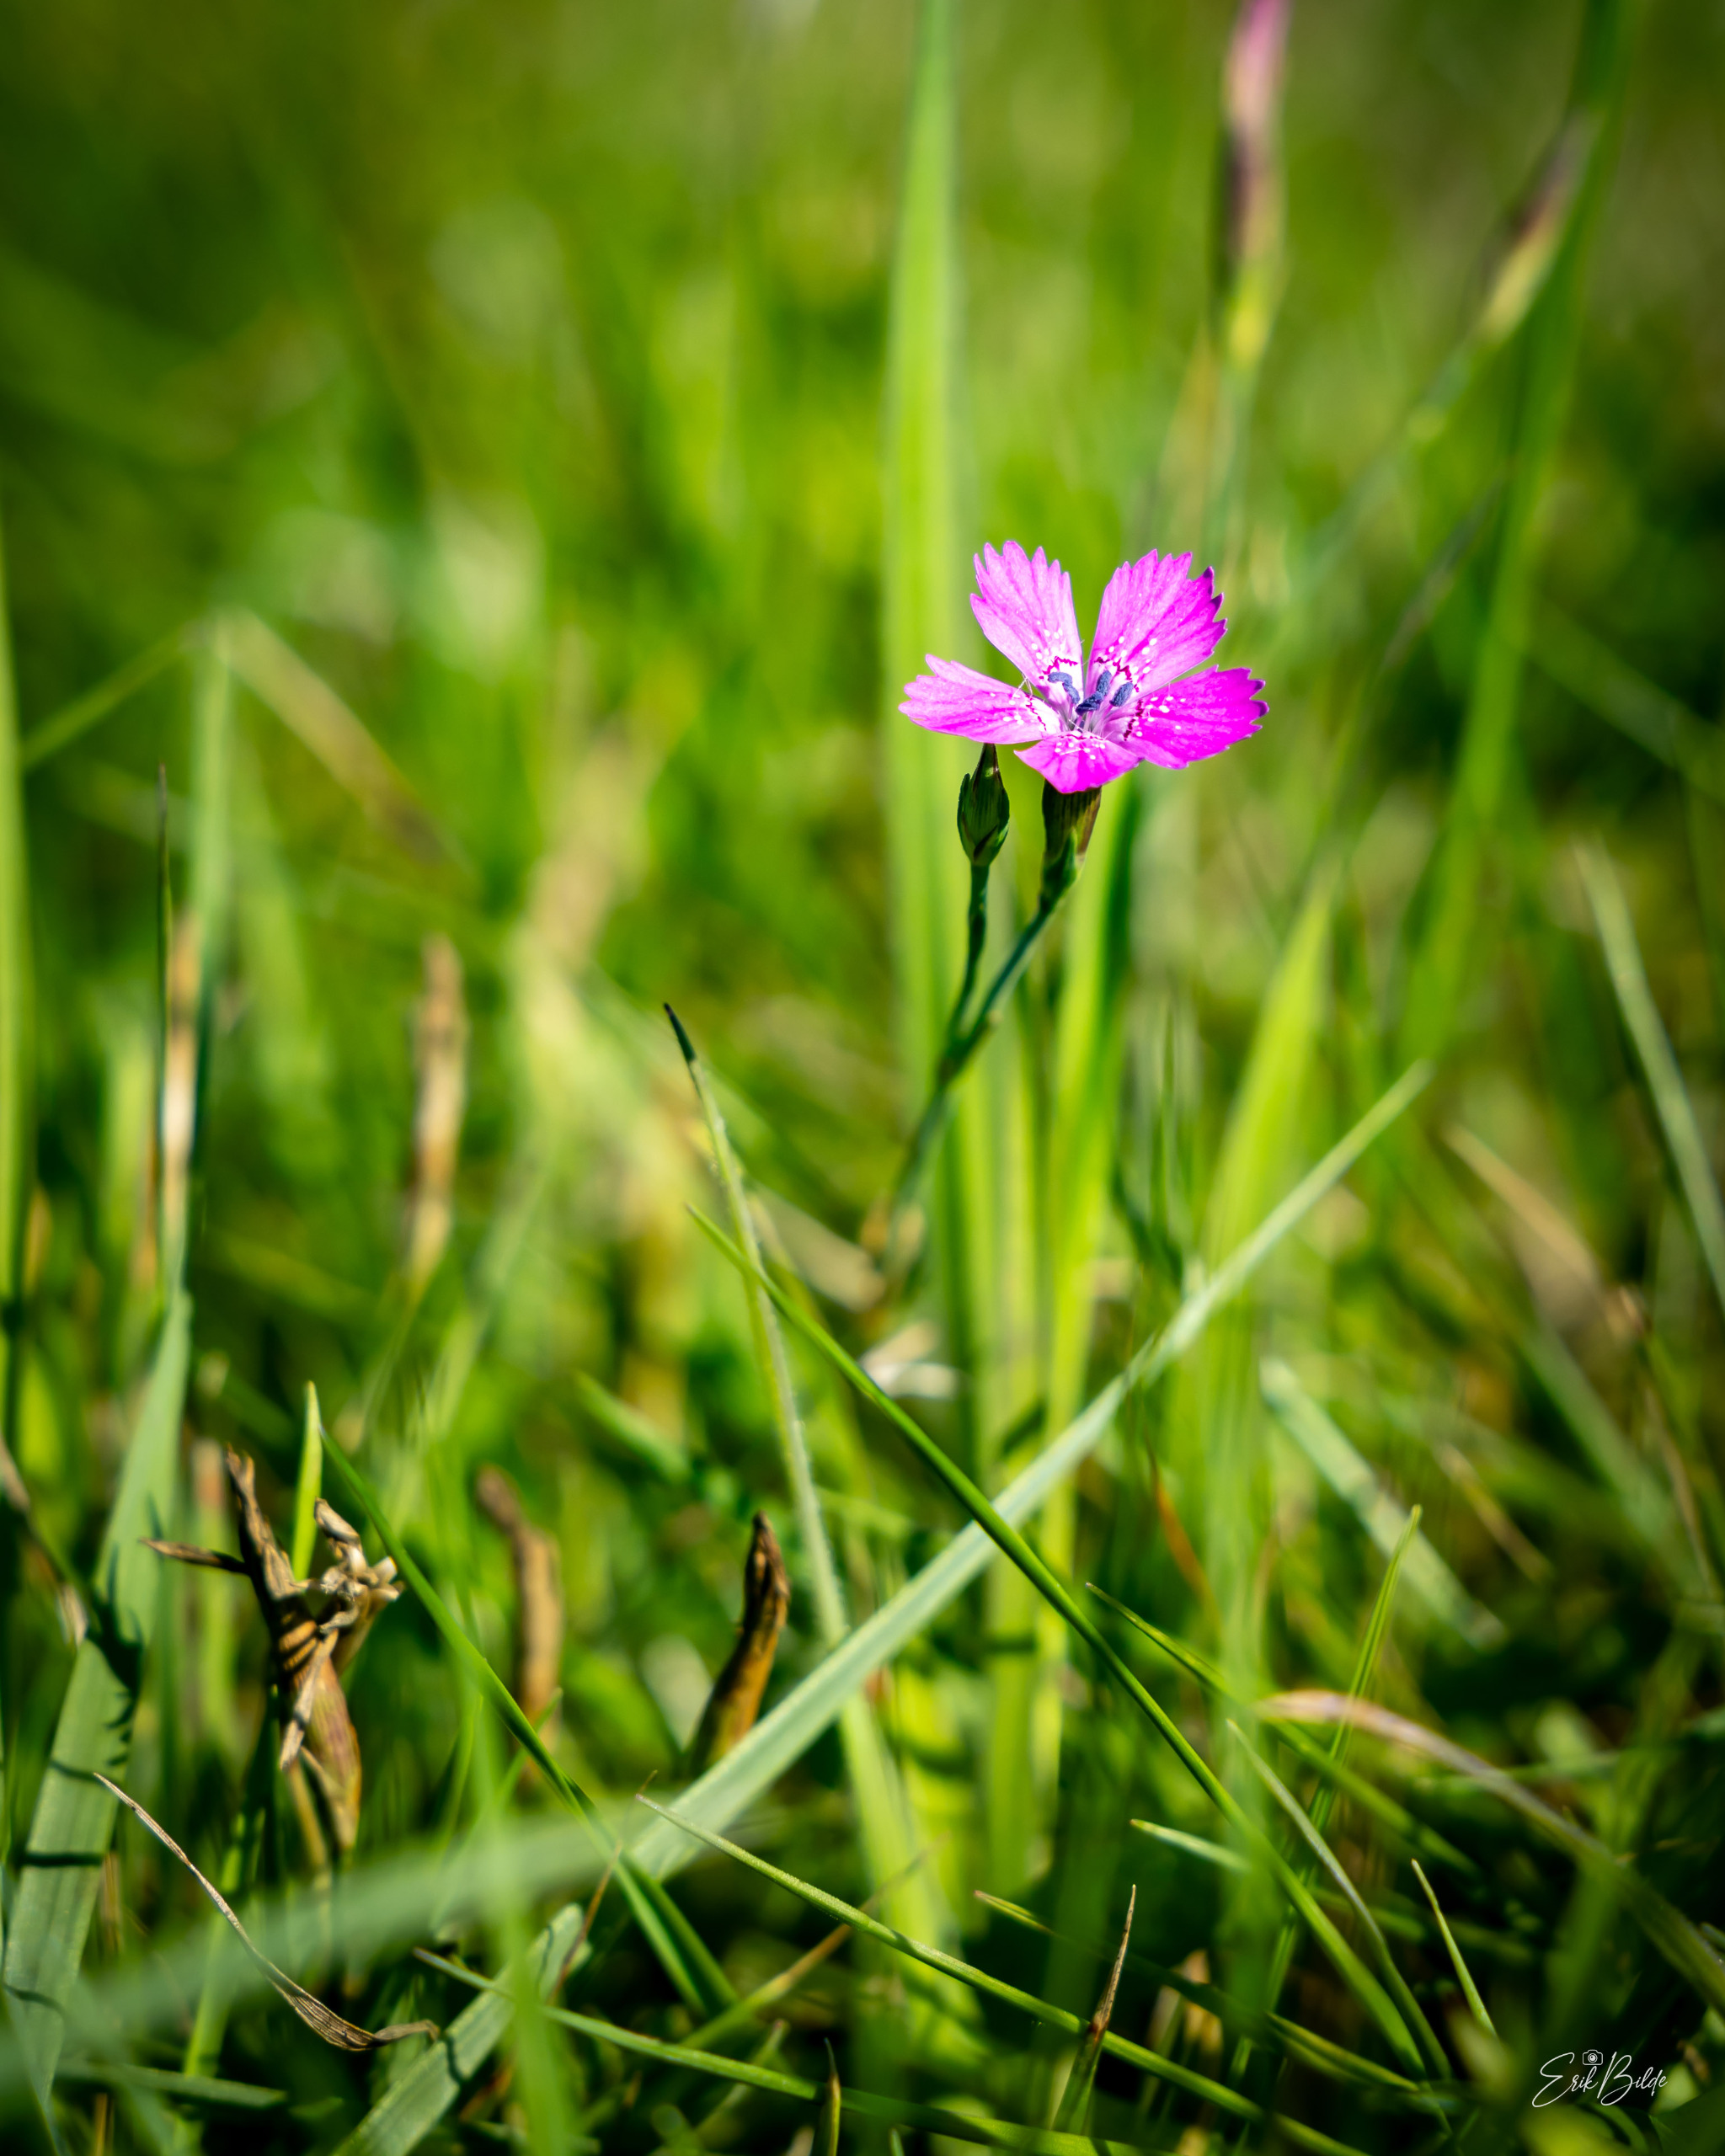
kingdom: Plantae
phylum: Tracheophyta
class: Magnoliopsida
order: Caryophyllales
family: Caryophyllaceae
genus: Dianthus
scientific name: Dianthus deltoides
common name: Bakke-nellike
